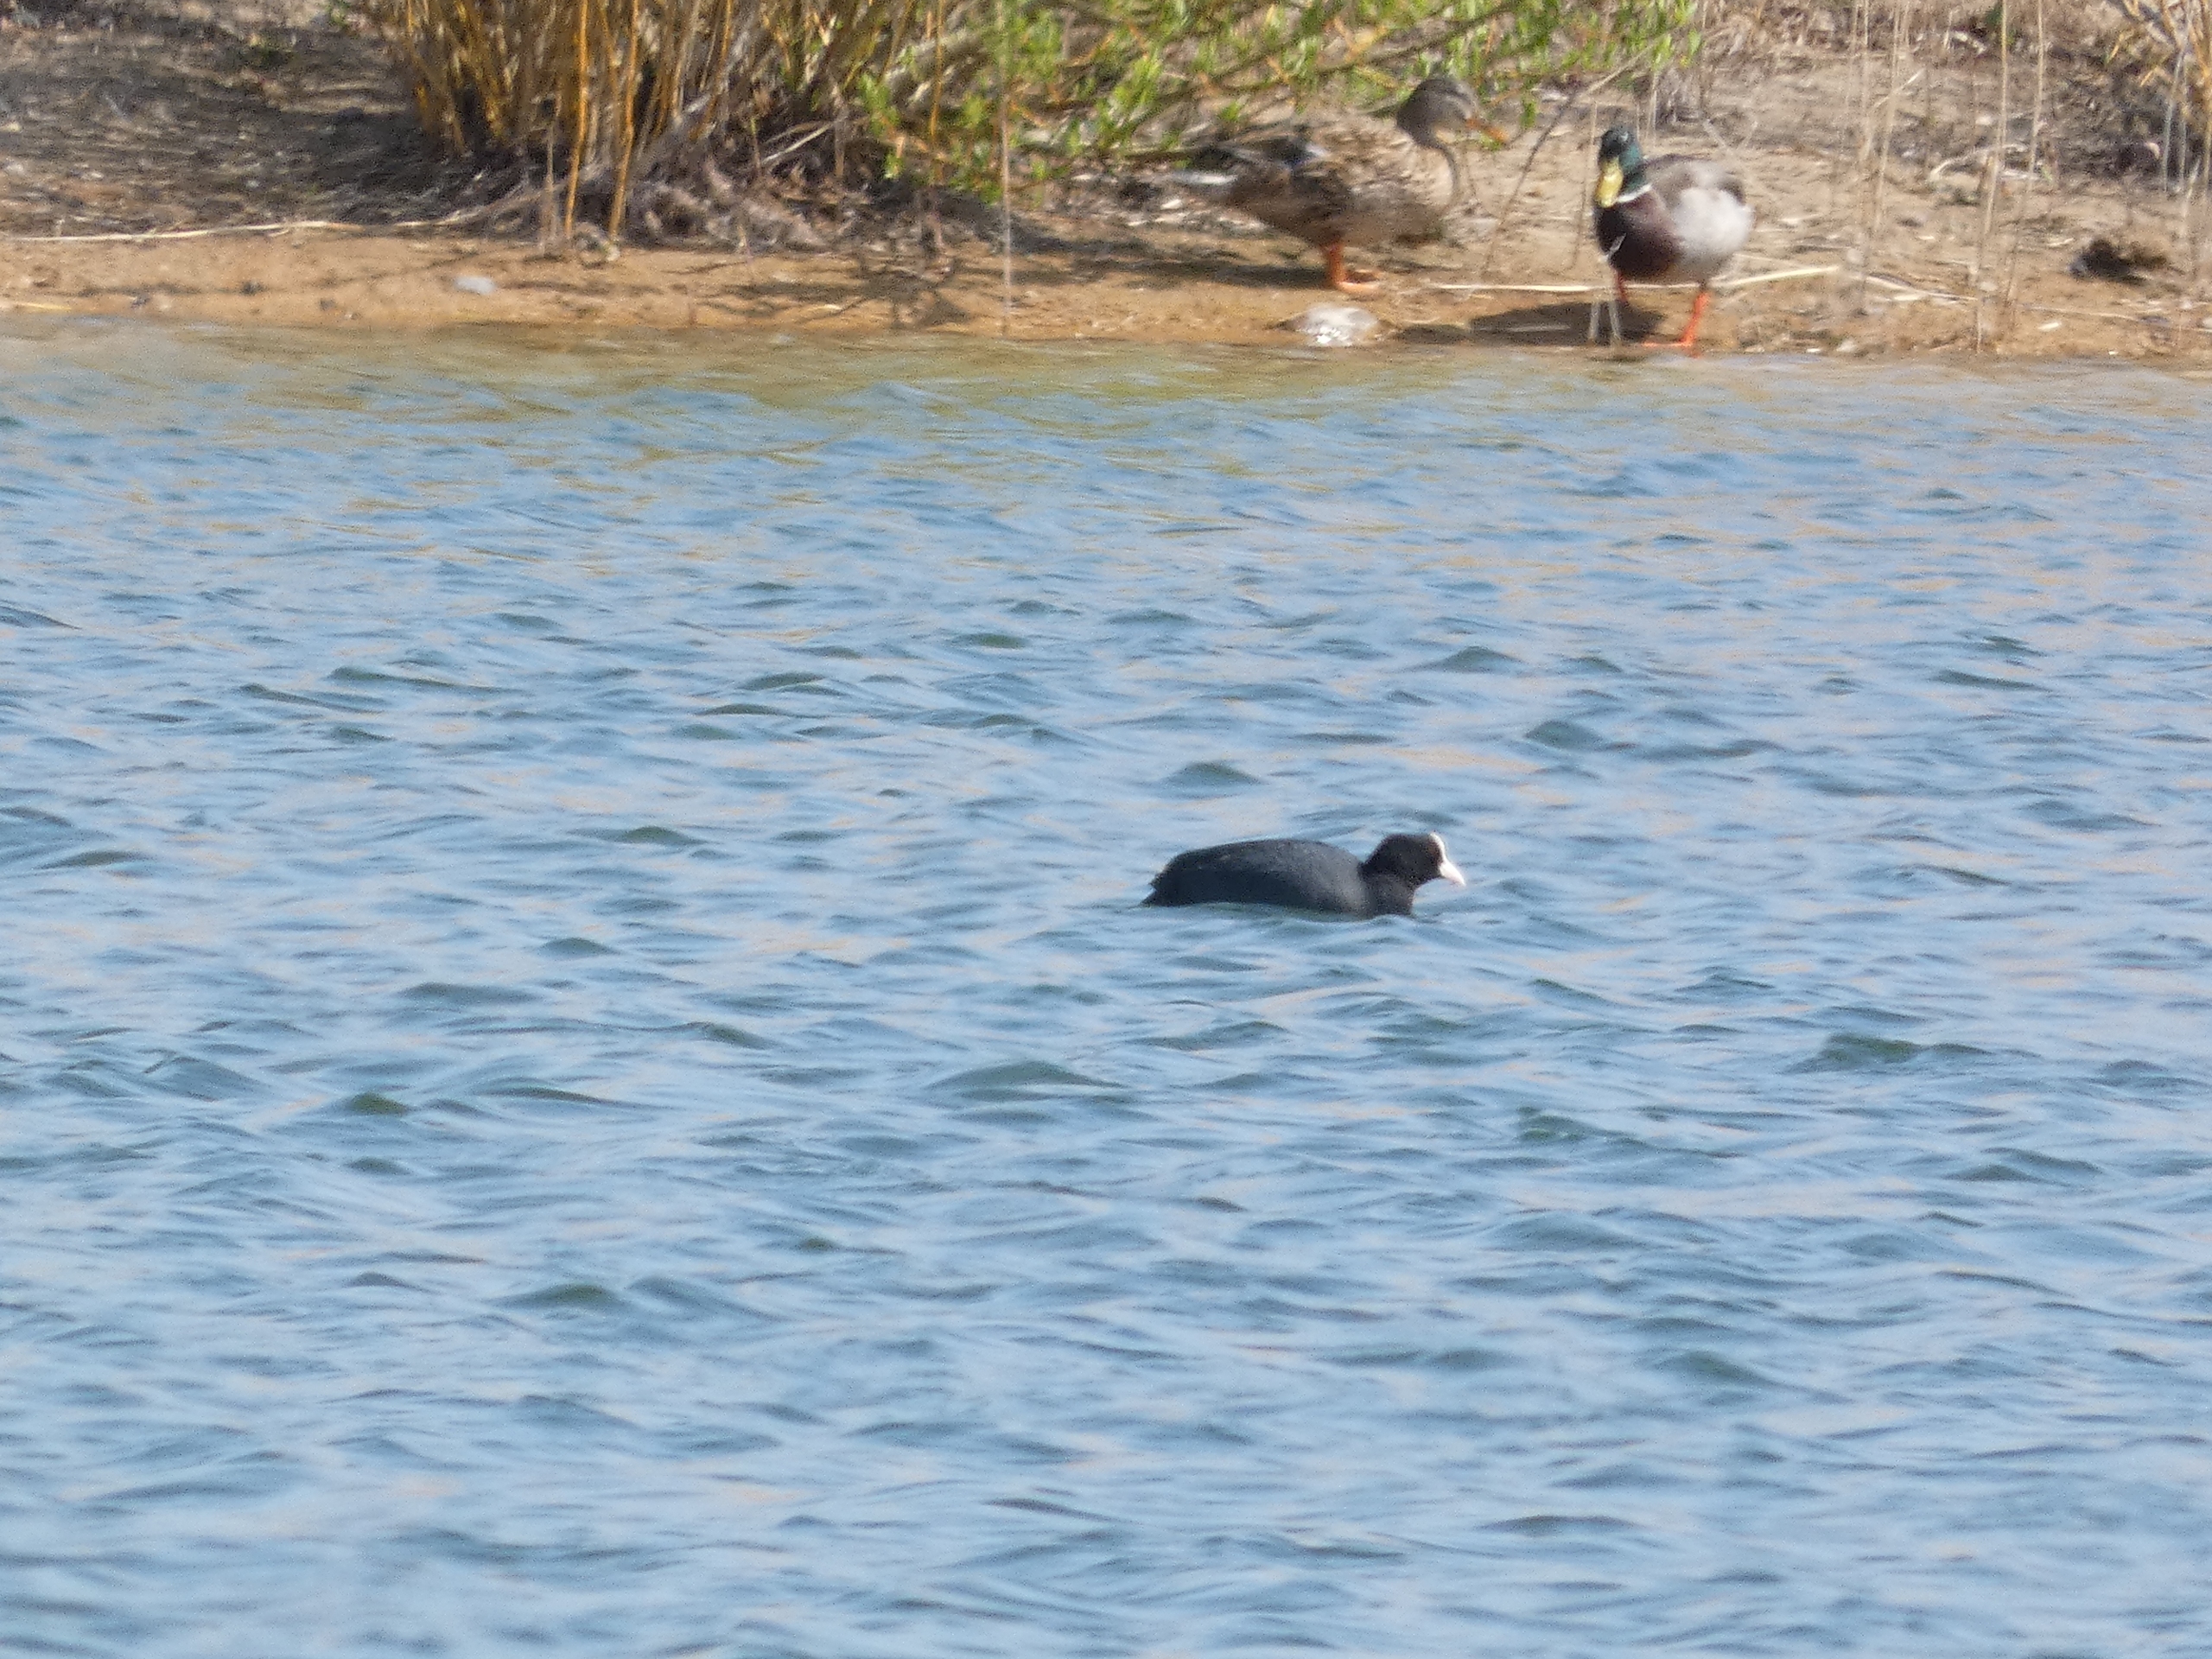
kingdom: Animalia
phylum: Chordata
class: Aves
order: Gruiformes
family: Rallidae
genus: Fulica
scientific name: Fulica atra
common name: Blishøne
